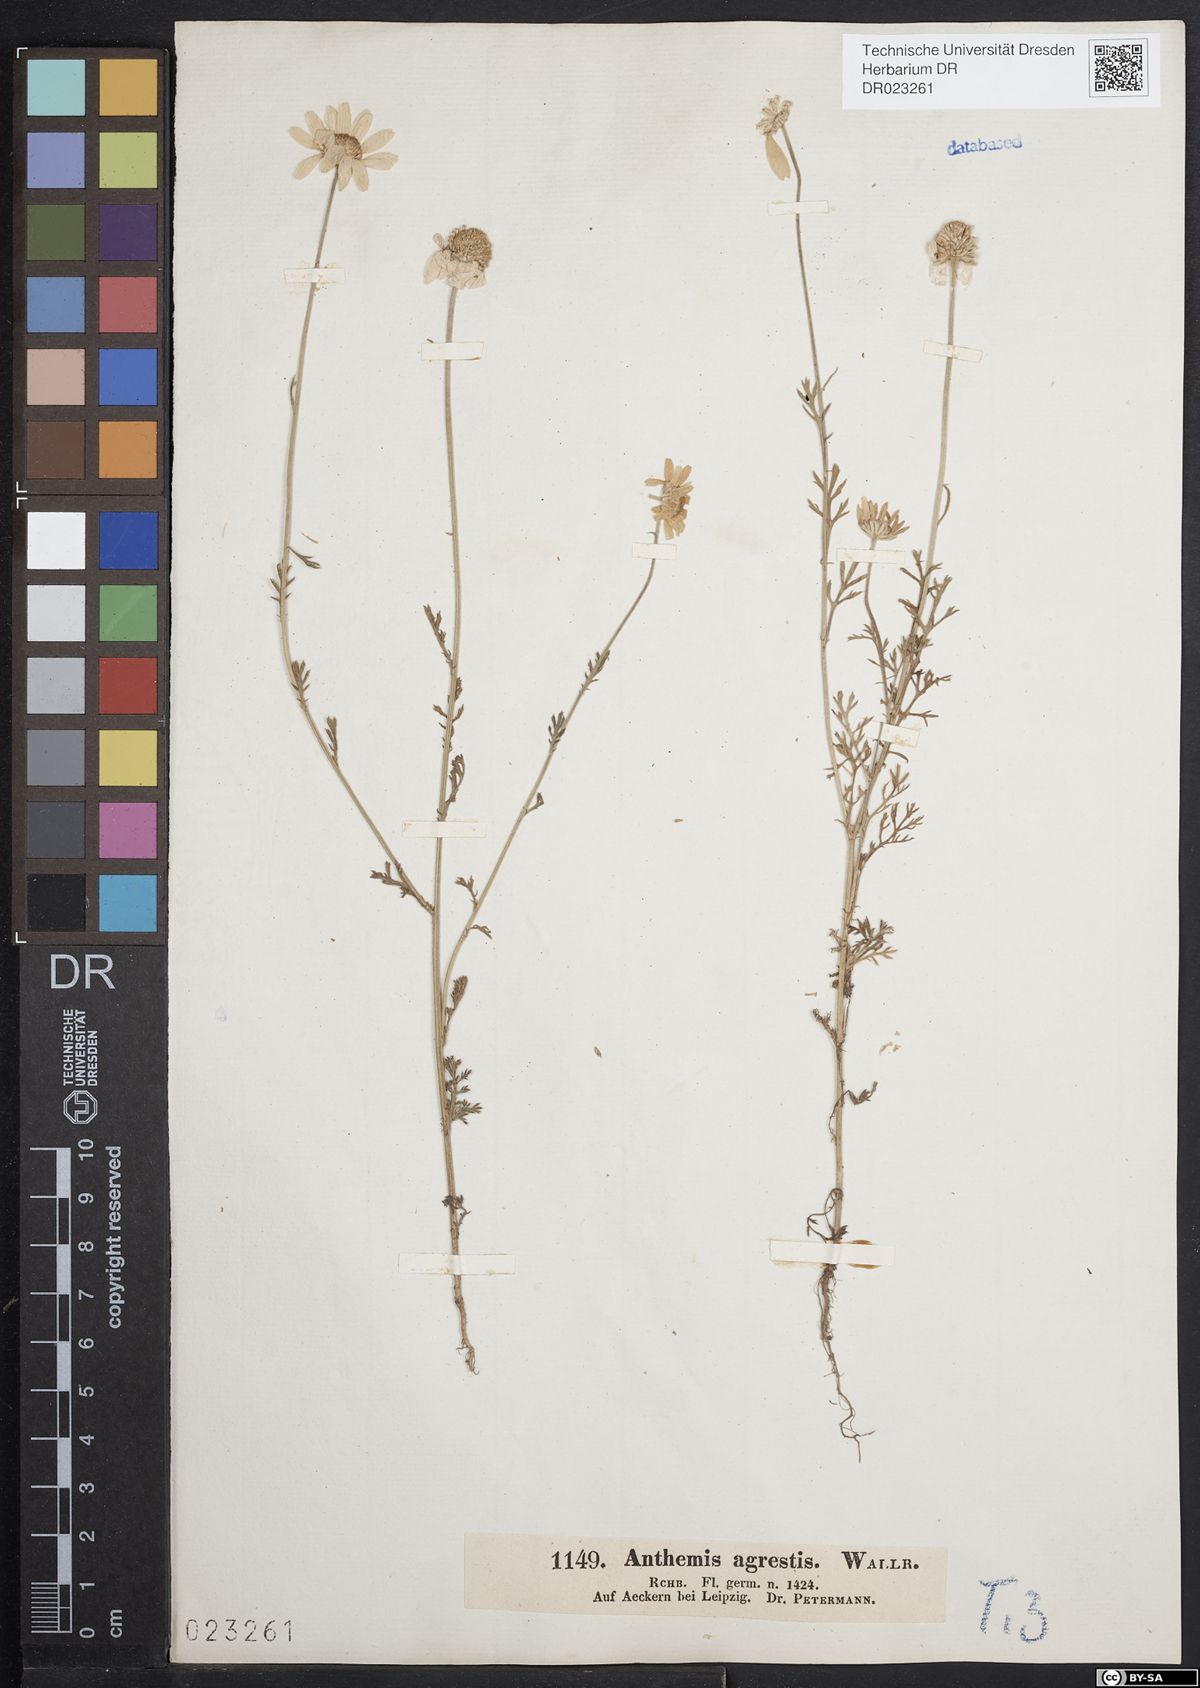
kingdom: Plantae
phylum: Tracheophyta
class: Magnoliopsida
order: Asterales
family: Asteraceae
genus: Anthemis
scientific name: Anthemis arvensis
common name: Corn chamomile
